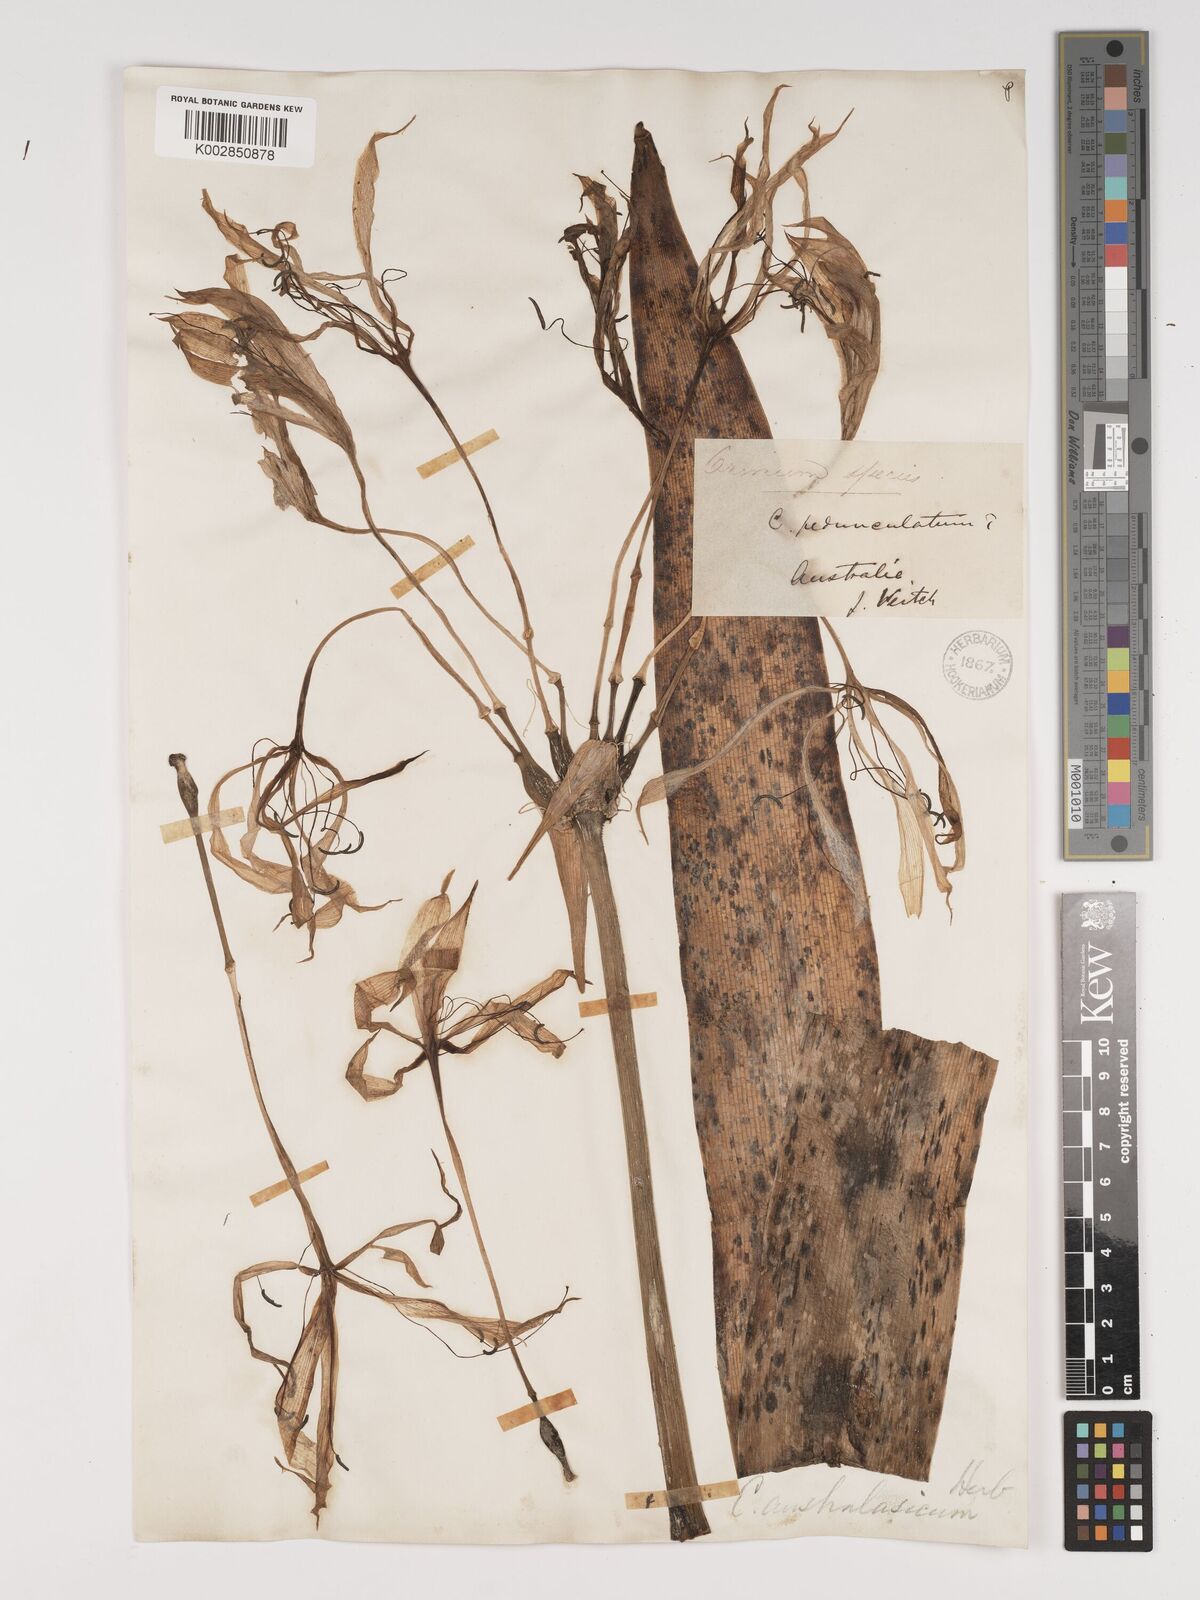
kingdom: Plantae
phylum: Tracheophyta
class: Liliopsida
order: Asparagales
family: Amaryllidaceae
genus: Crinum
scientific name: Crinum asiaticum
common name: Poisonbulb
